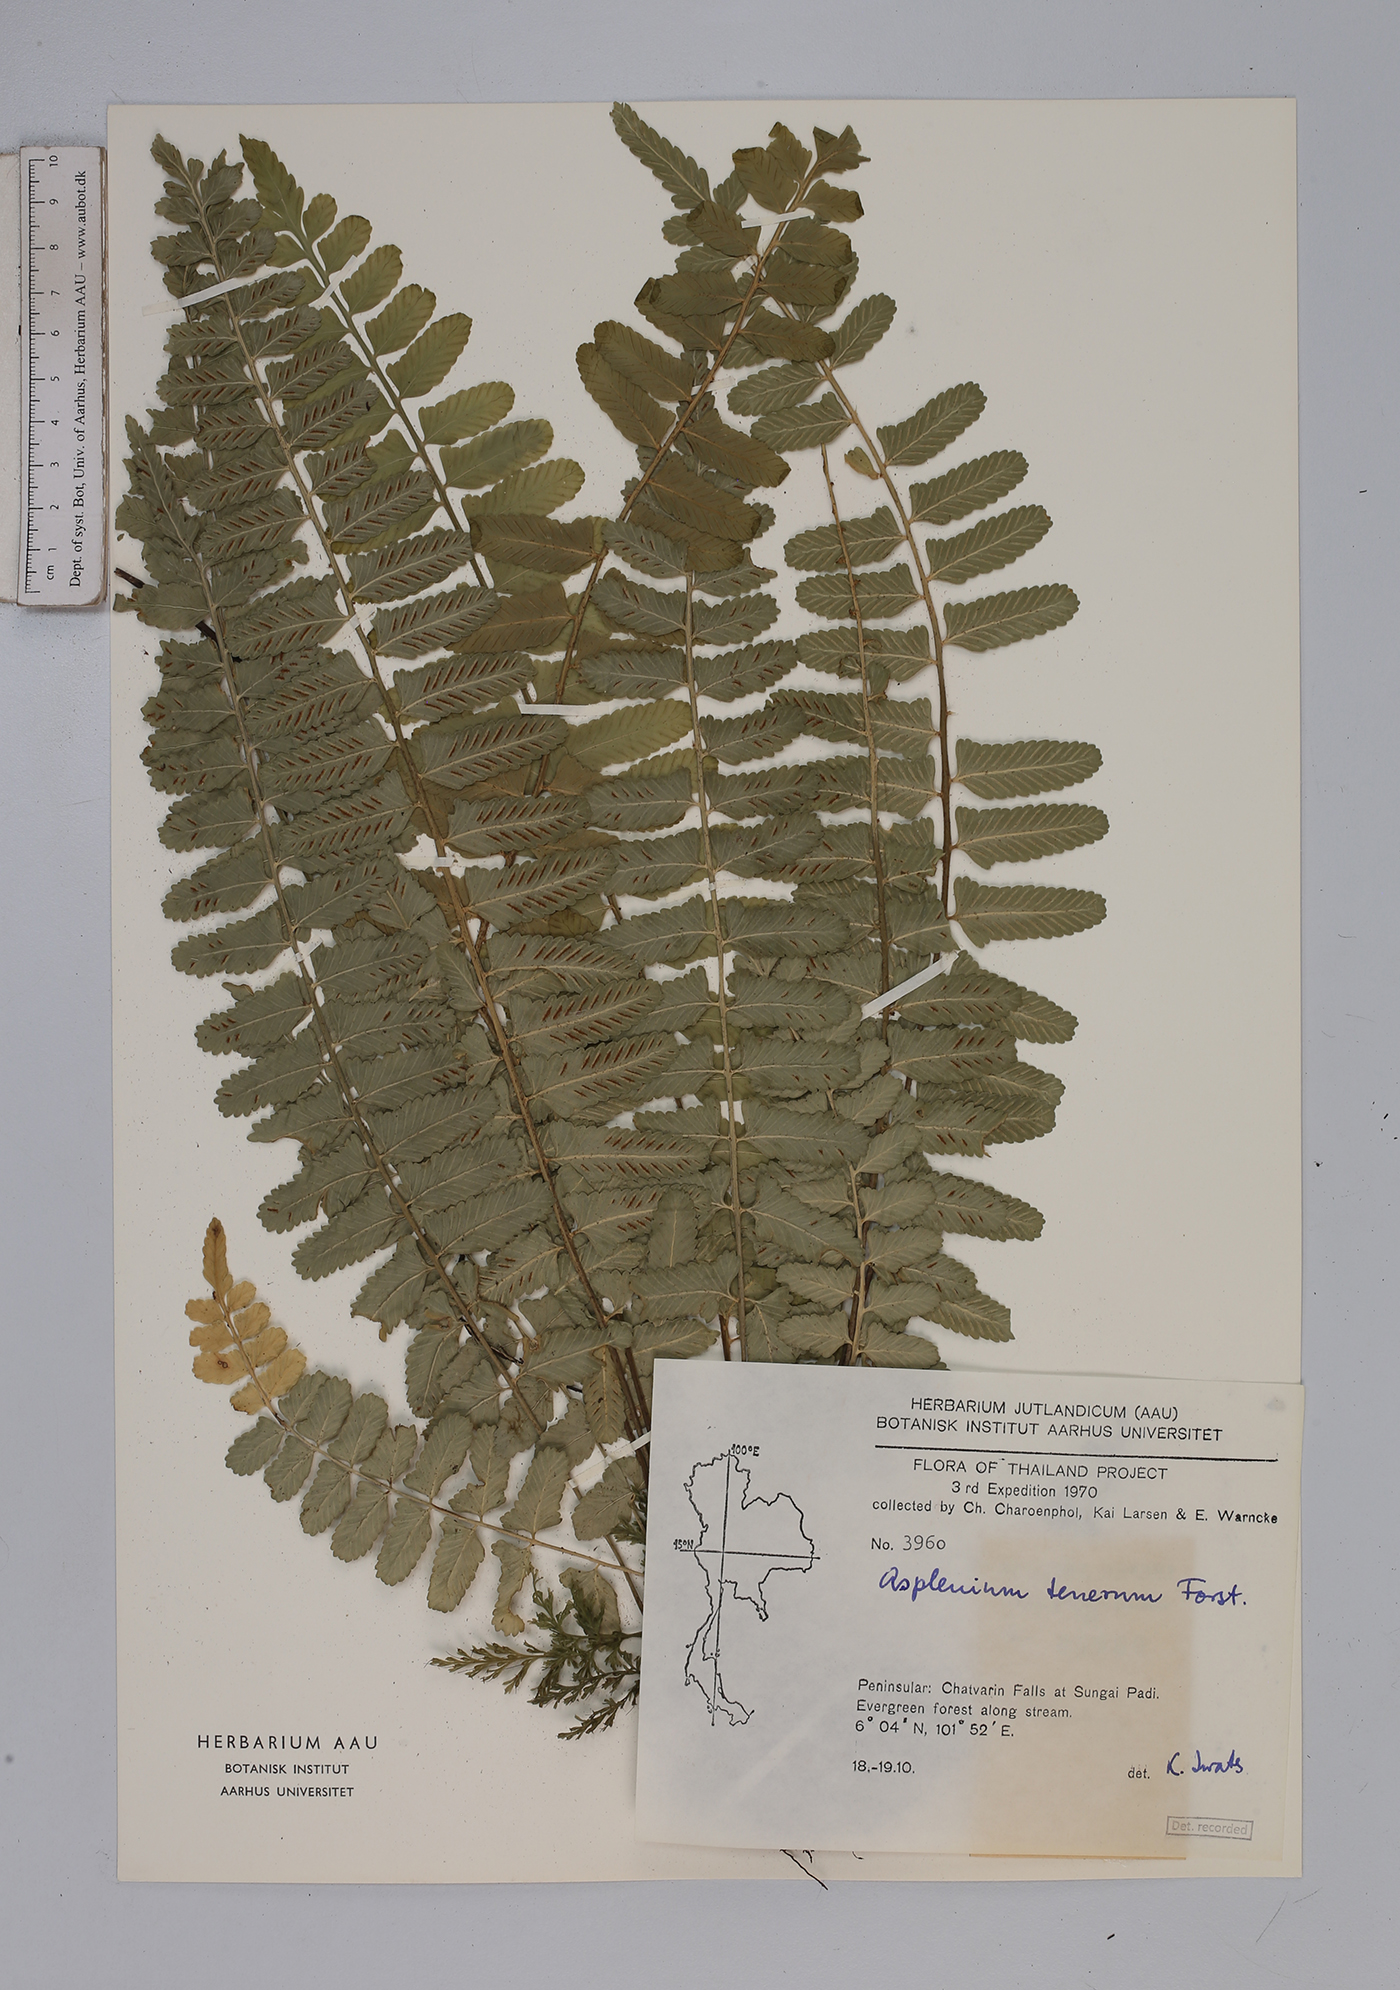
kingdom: Plantae
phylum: Tracheophyta
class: Polypodiopsida
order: Polypodiales
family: Aspleniaceae
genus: Asplenium
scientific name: Asplenium tenerum
